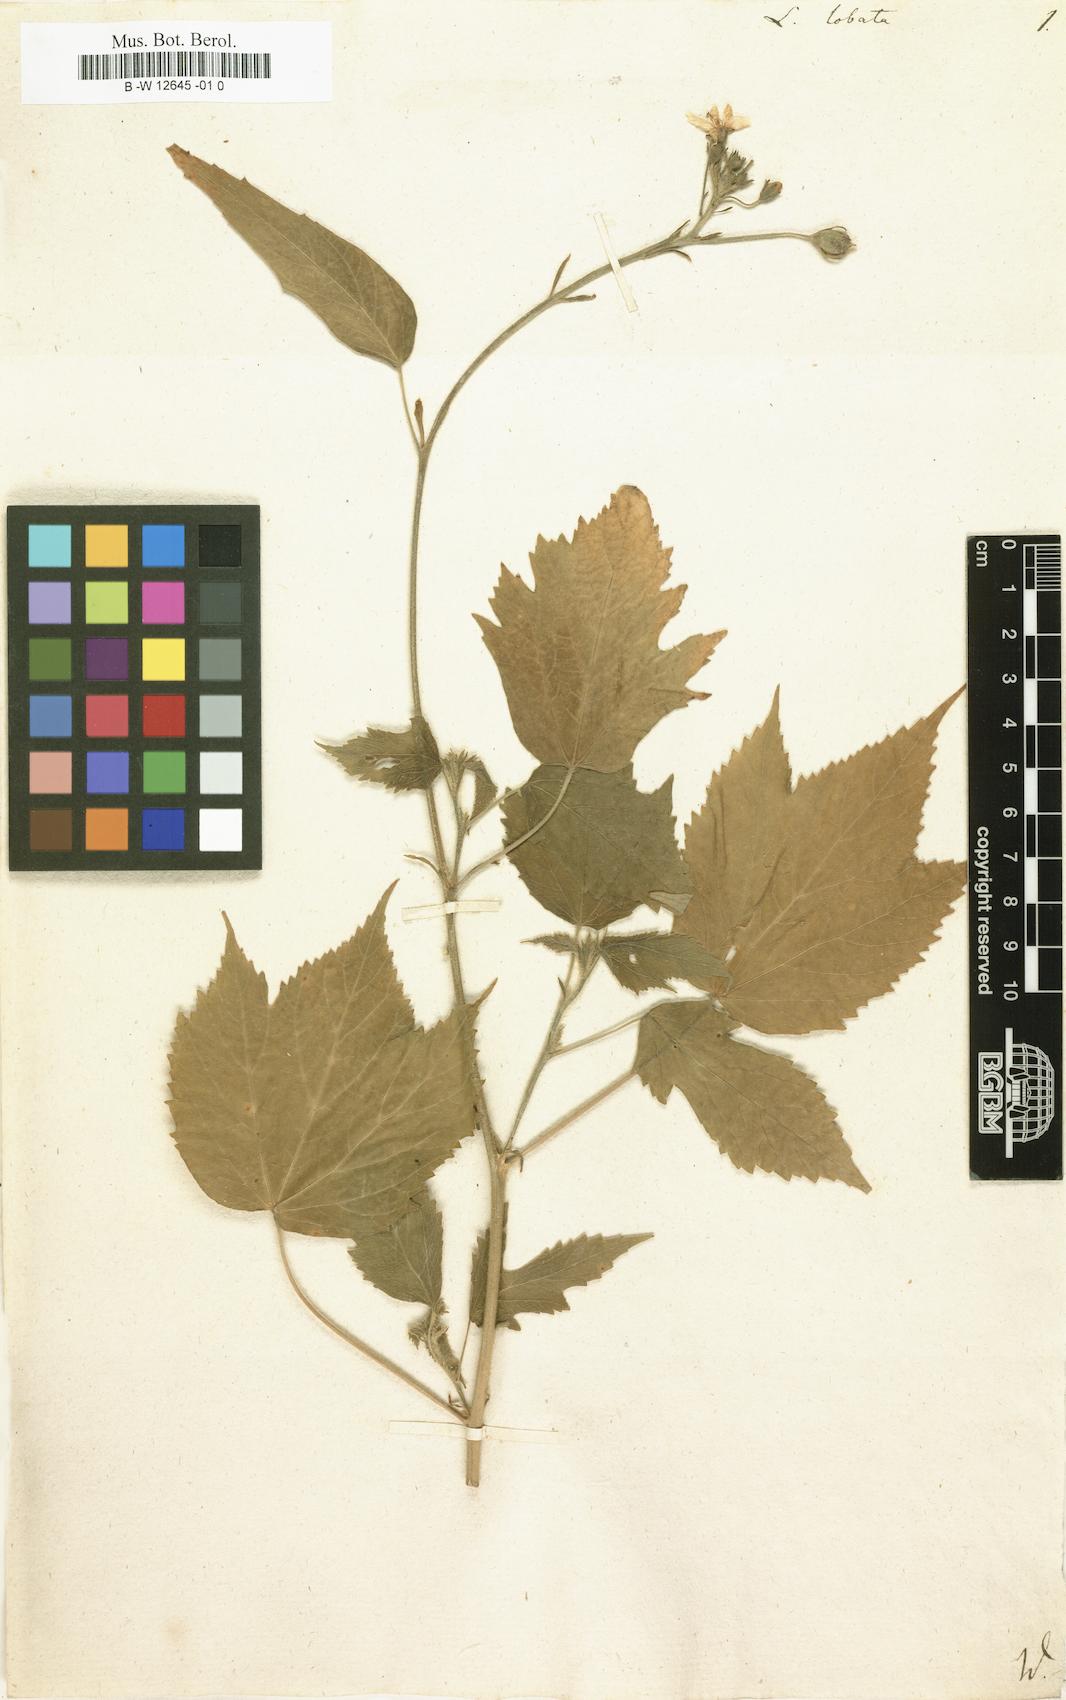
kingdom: Plantae
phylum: Tracheophyta
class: Magnoliopsida
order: Malvales
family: Malvaceae
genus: Hibiscus
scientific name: Hibiscus lobatus
